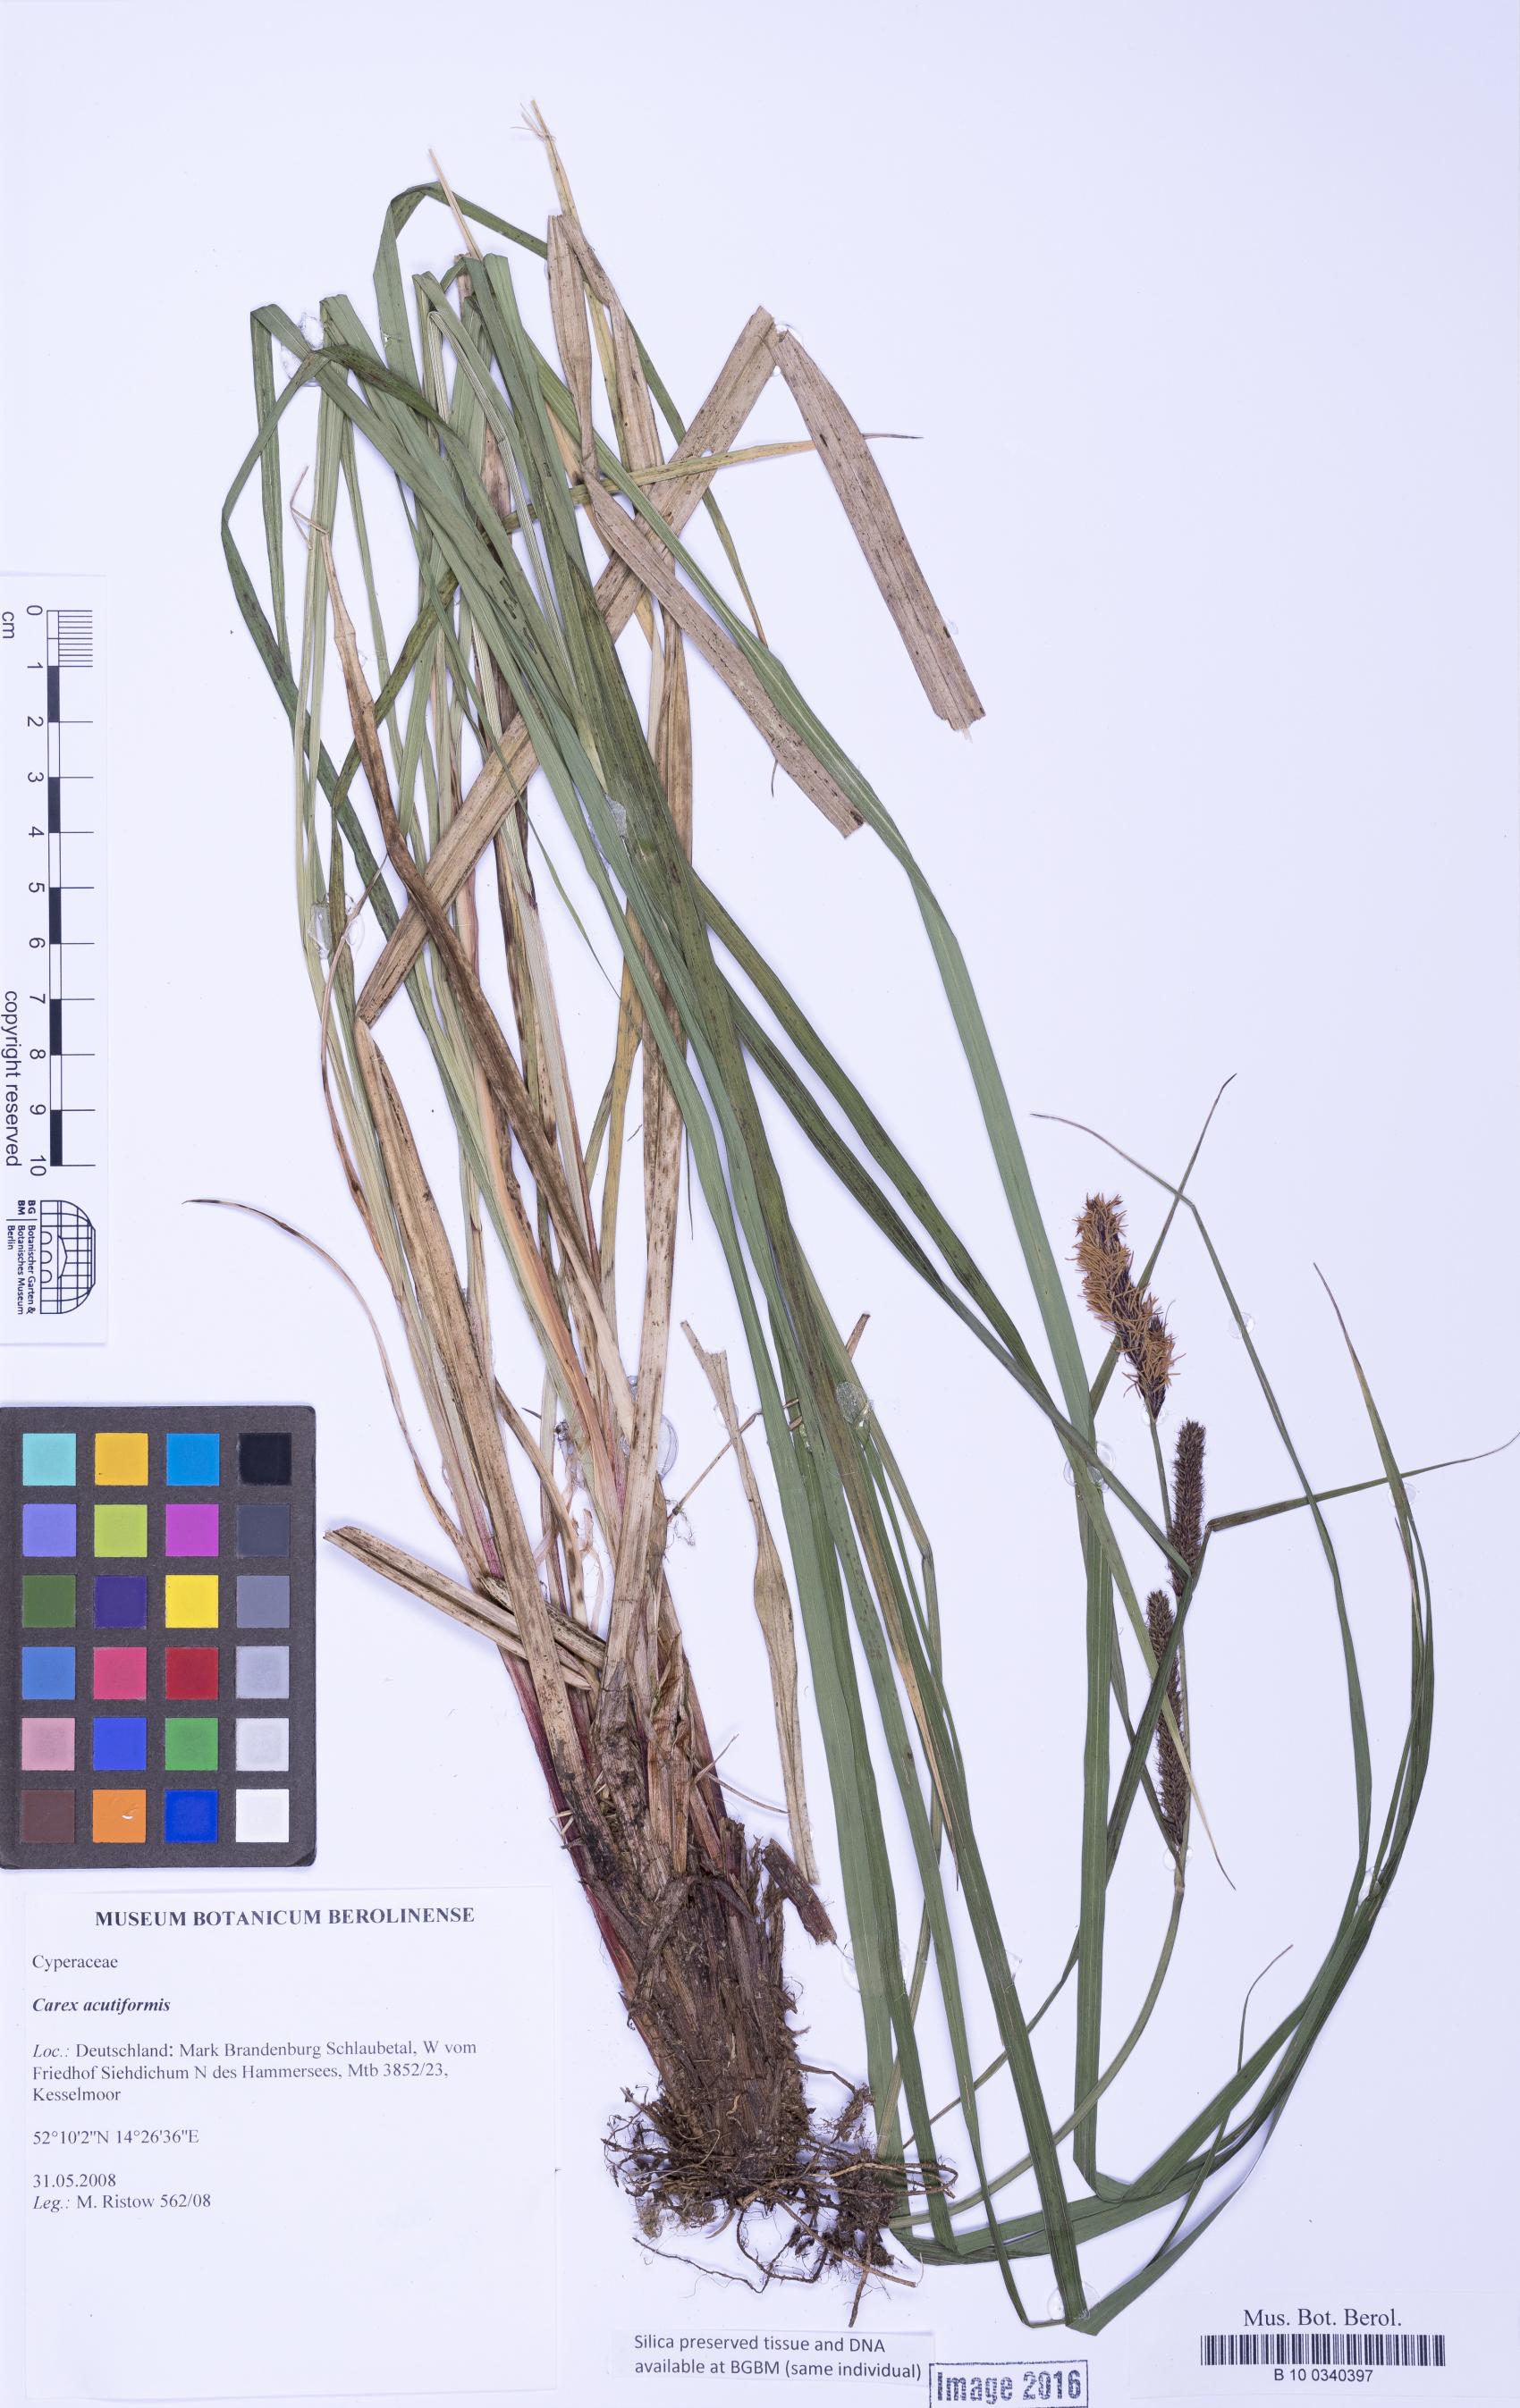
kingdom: Plantae
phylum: Tracheophyta
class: Liliopsida
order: Poales
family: Cyperaceae
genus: Carex
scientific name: Carex acutiformis
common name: Lesser pond-sedge
